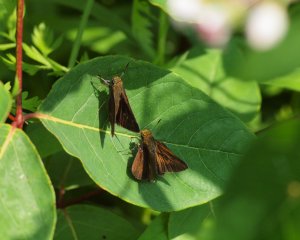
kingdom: Animalia
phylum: Arthropoda
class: Insecta
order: Lepidoptera
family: Hesperiidae
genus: Euphyes
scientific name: Euphyes vestris
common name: Dun Skipper
